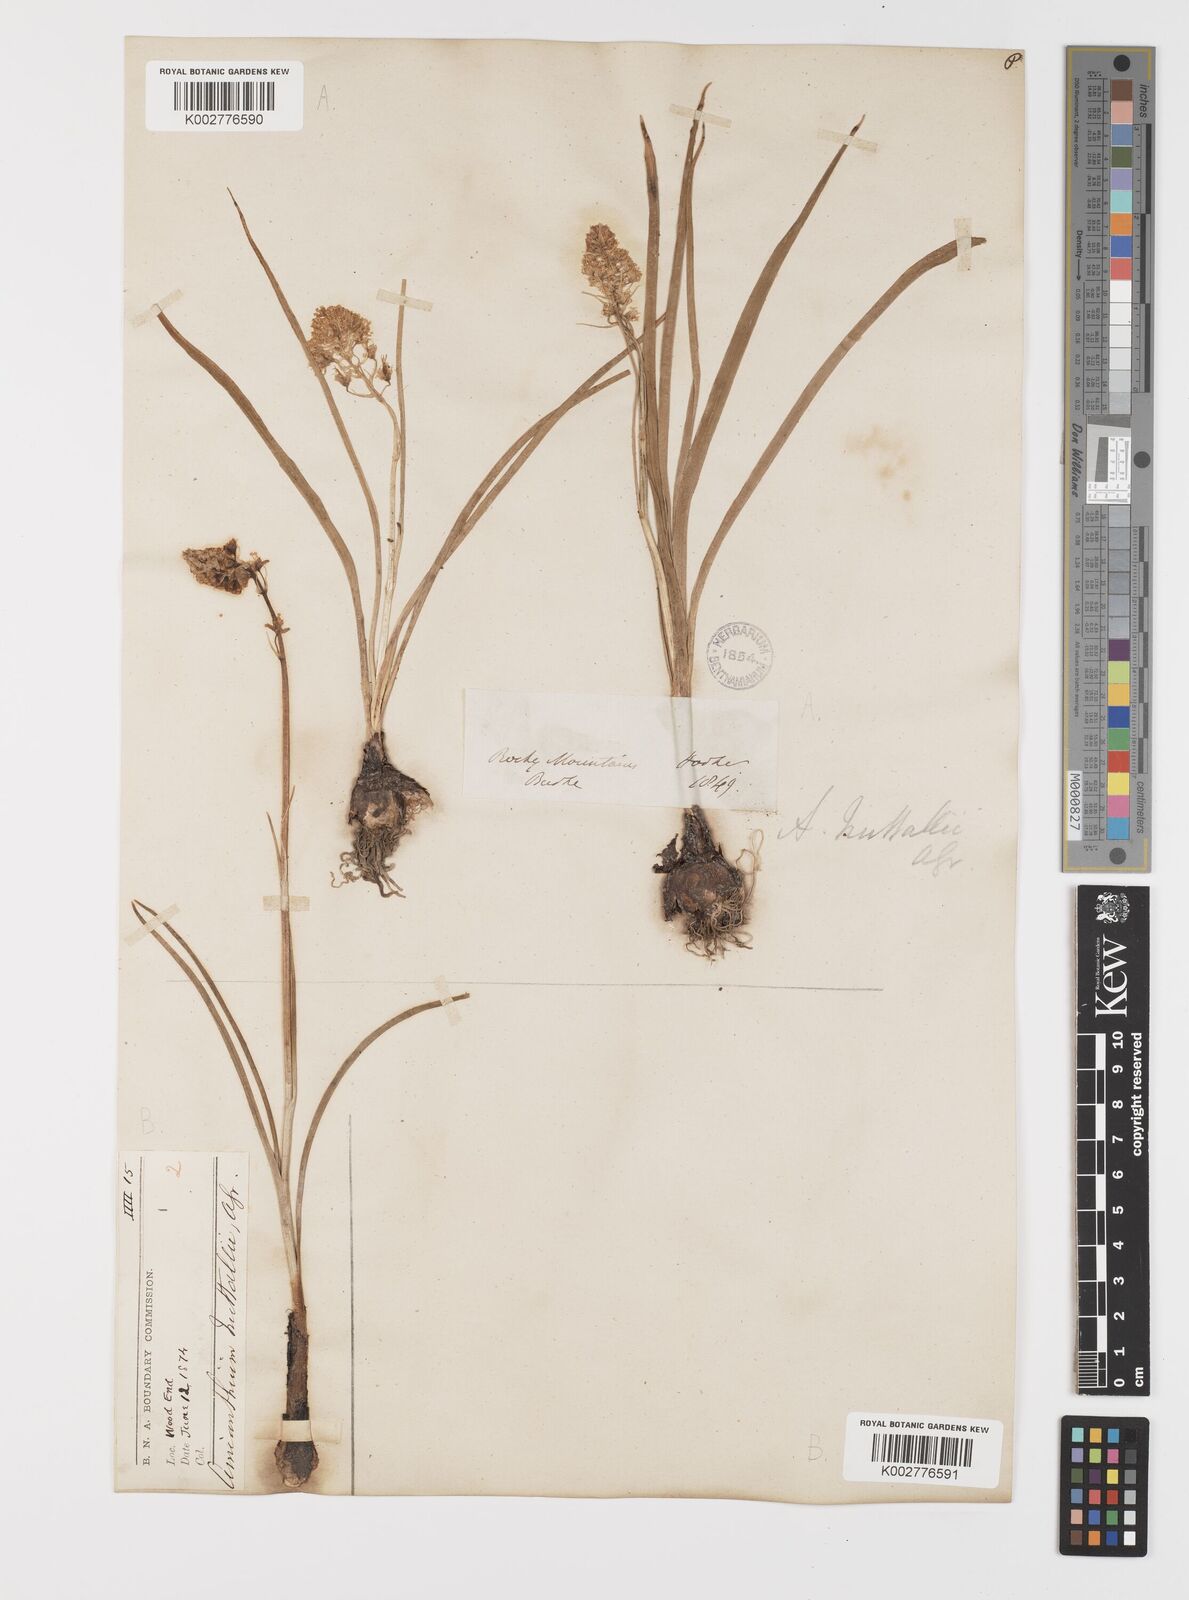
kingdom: Plantae
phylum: Tracheophyta
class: Liliopsida
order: Liliales
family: Melanthiaceae
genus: Toxicoscordion
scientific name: Toxicoscordion nuttallii
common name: Poison sego
